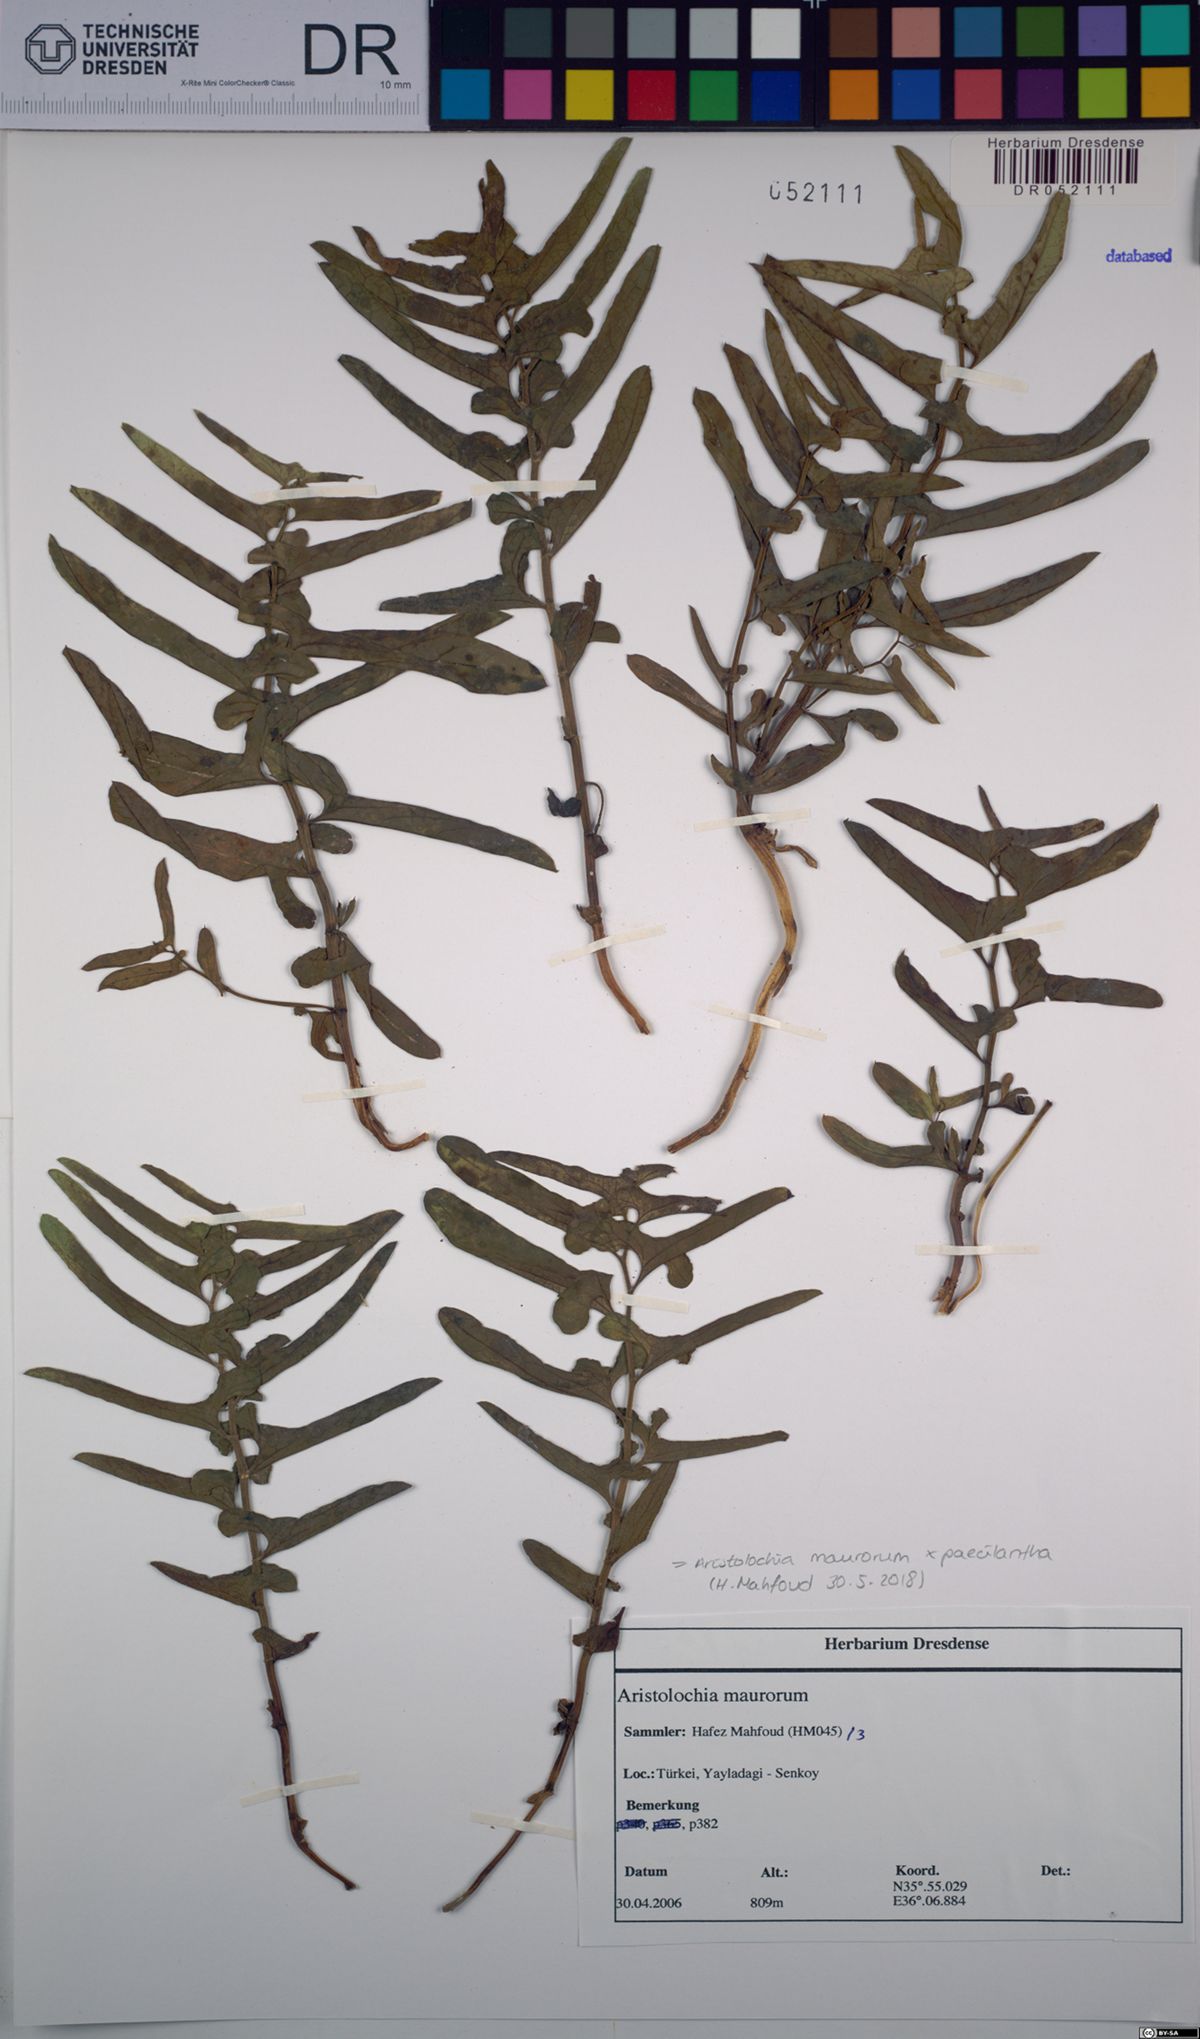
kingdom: Plantae
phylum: Tracheophyta
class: Magnoliopsida
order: Piperales
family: Aristolochiaceae
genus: Aristolochia
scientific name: Aristolochia maurorum
